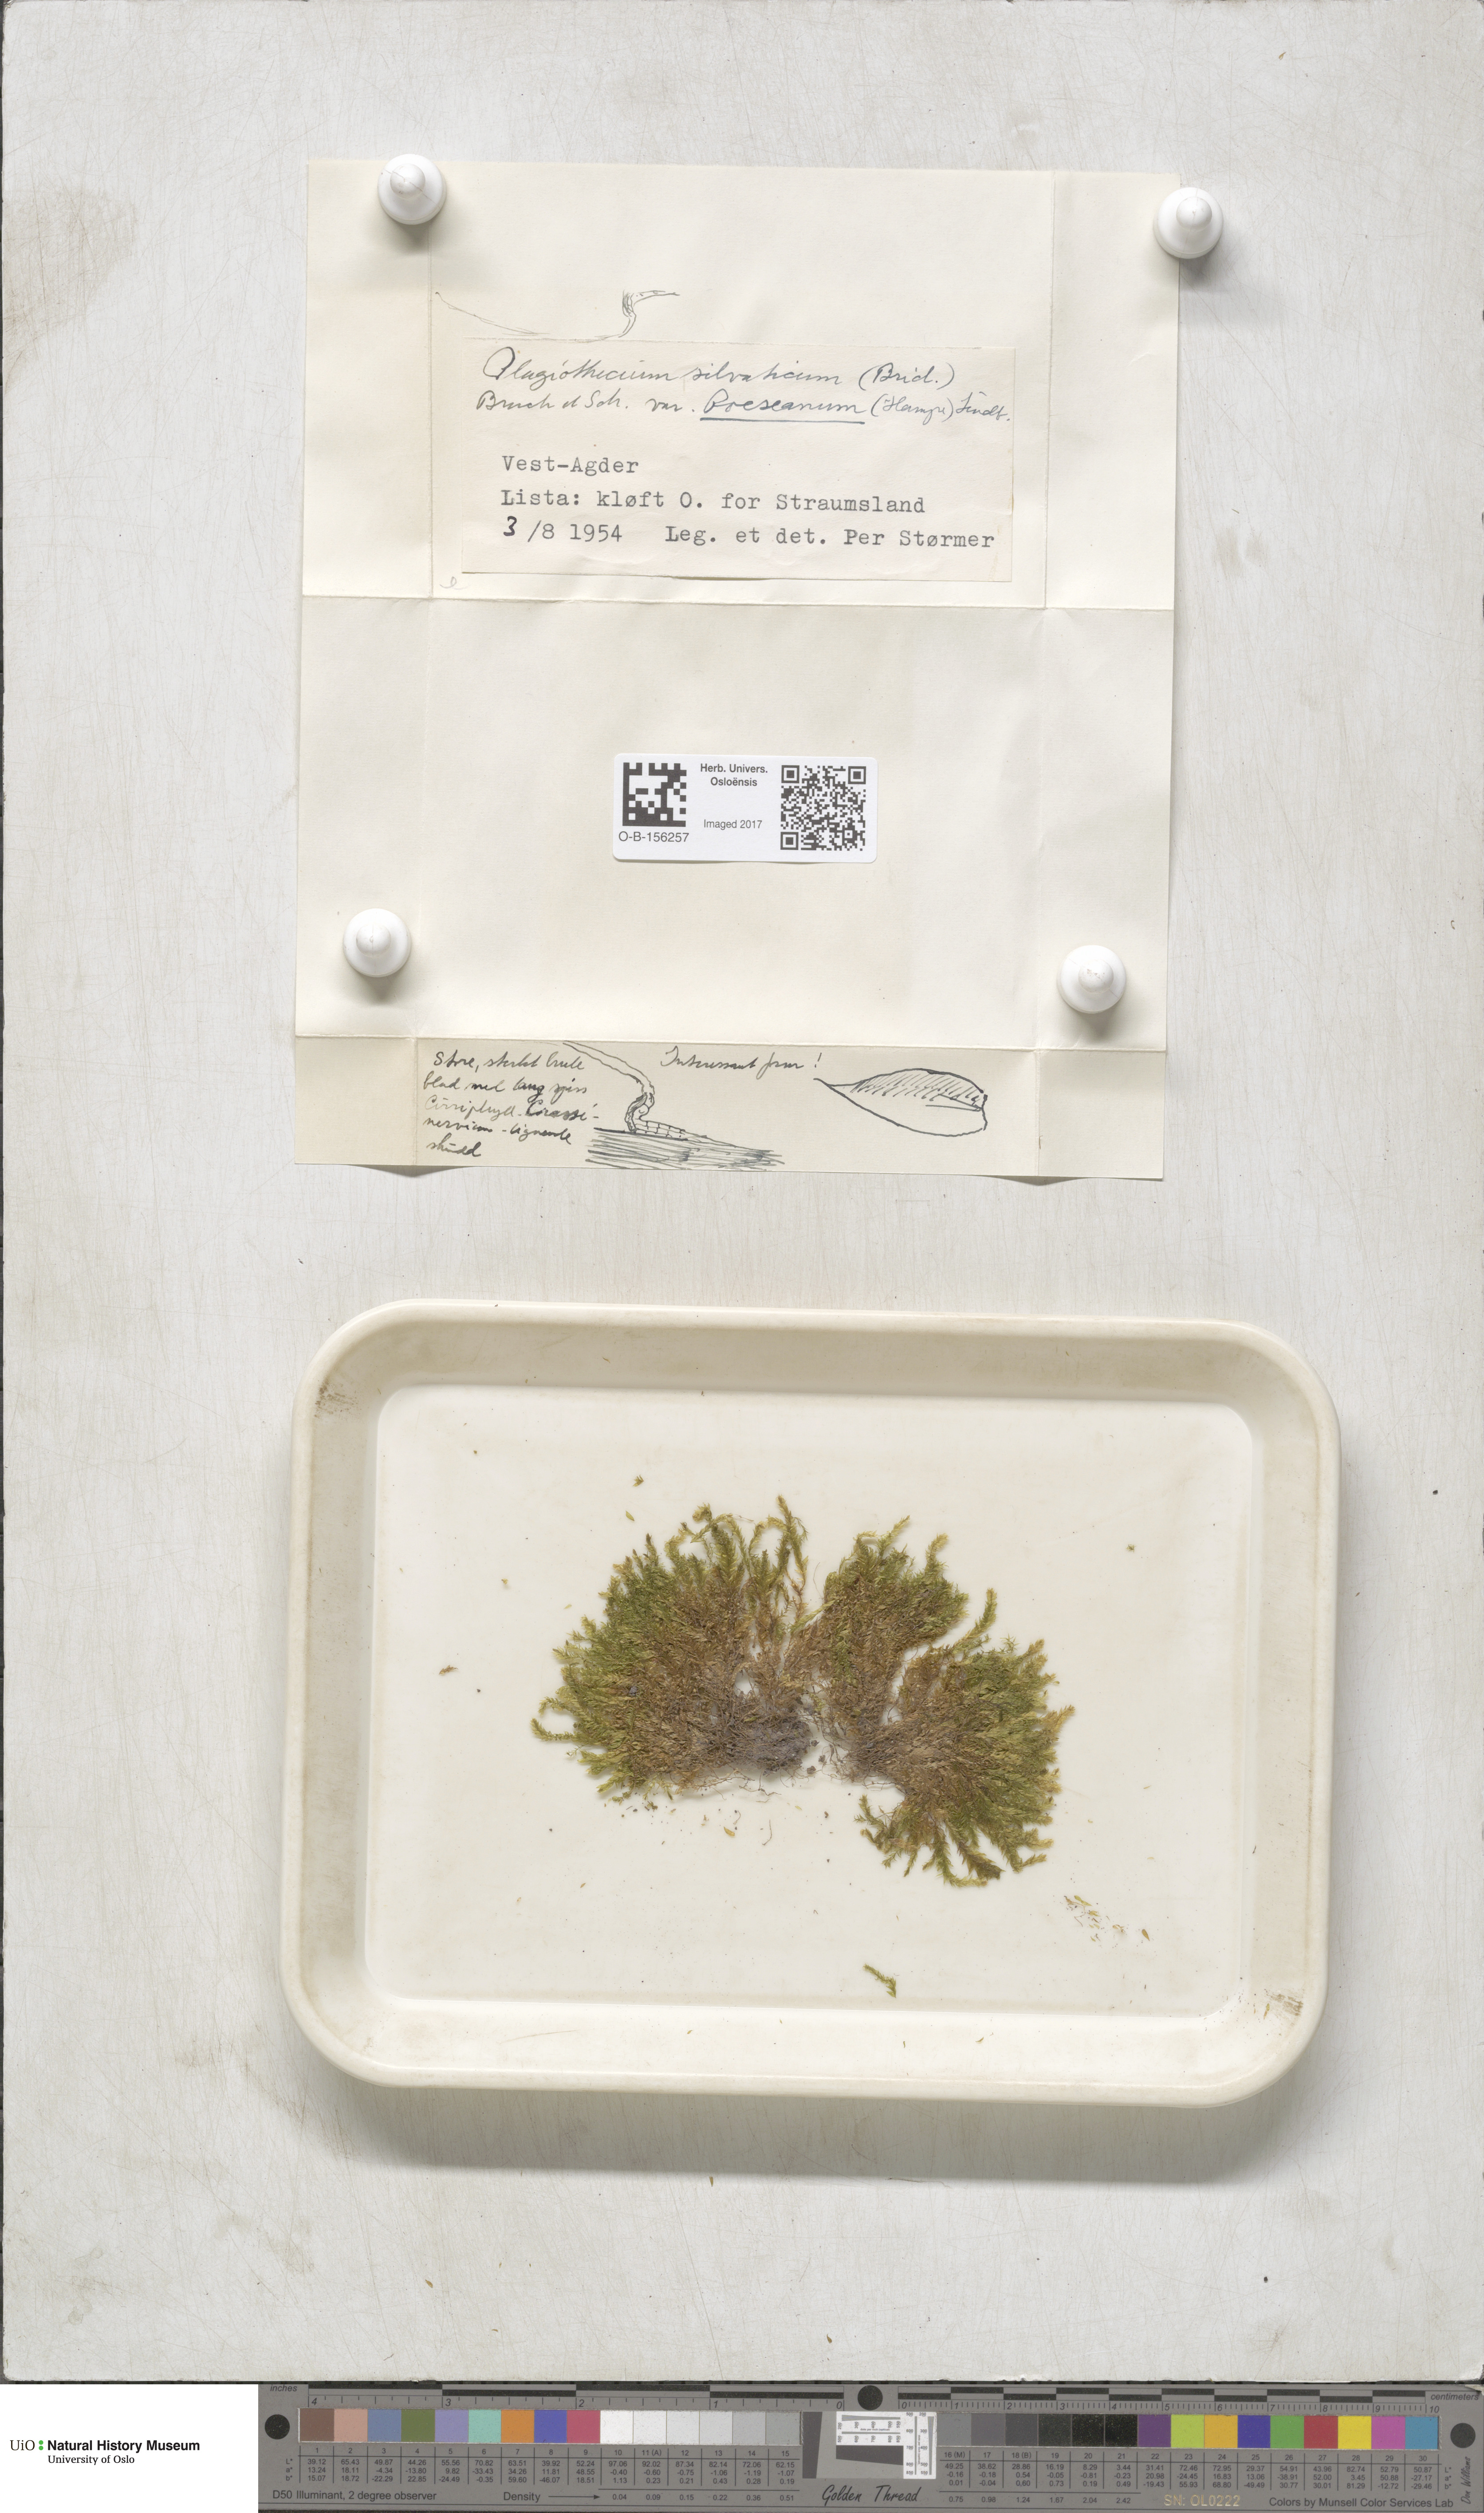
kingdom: Plantae
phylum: Bryophyta
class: Bryopsida
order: Hypnales
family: Plagiotheciaceae
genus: Plagiothecium
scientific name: Plagiothecium nemorale
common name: Woodsy silk-moss
